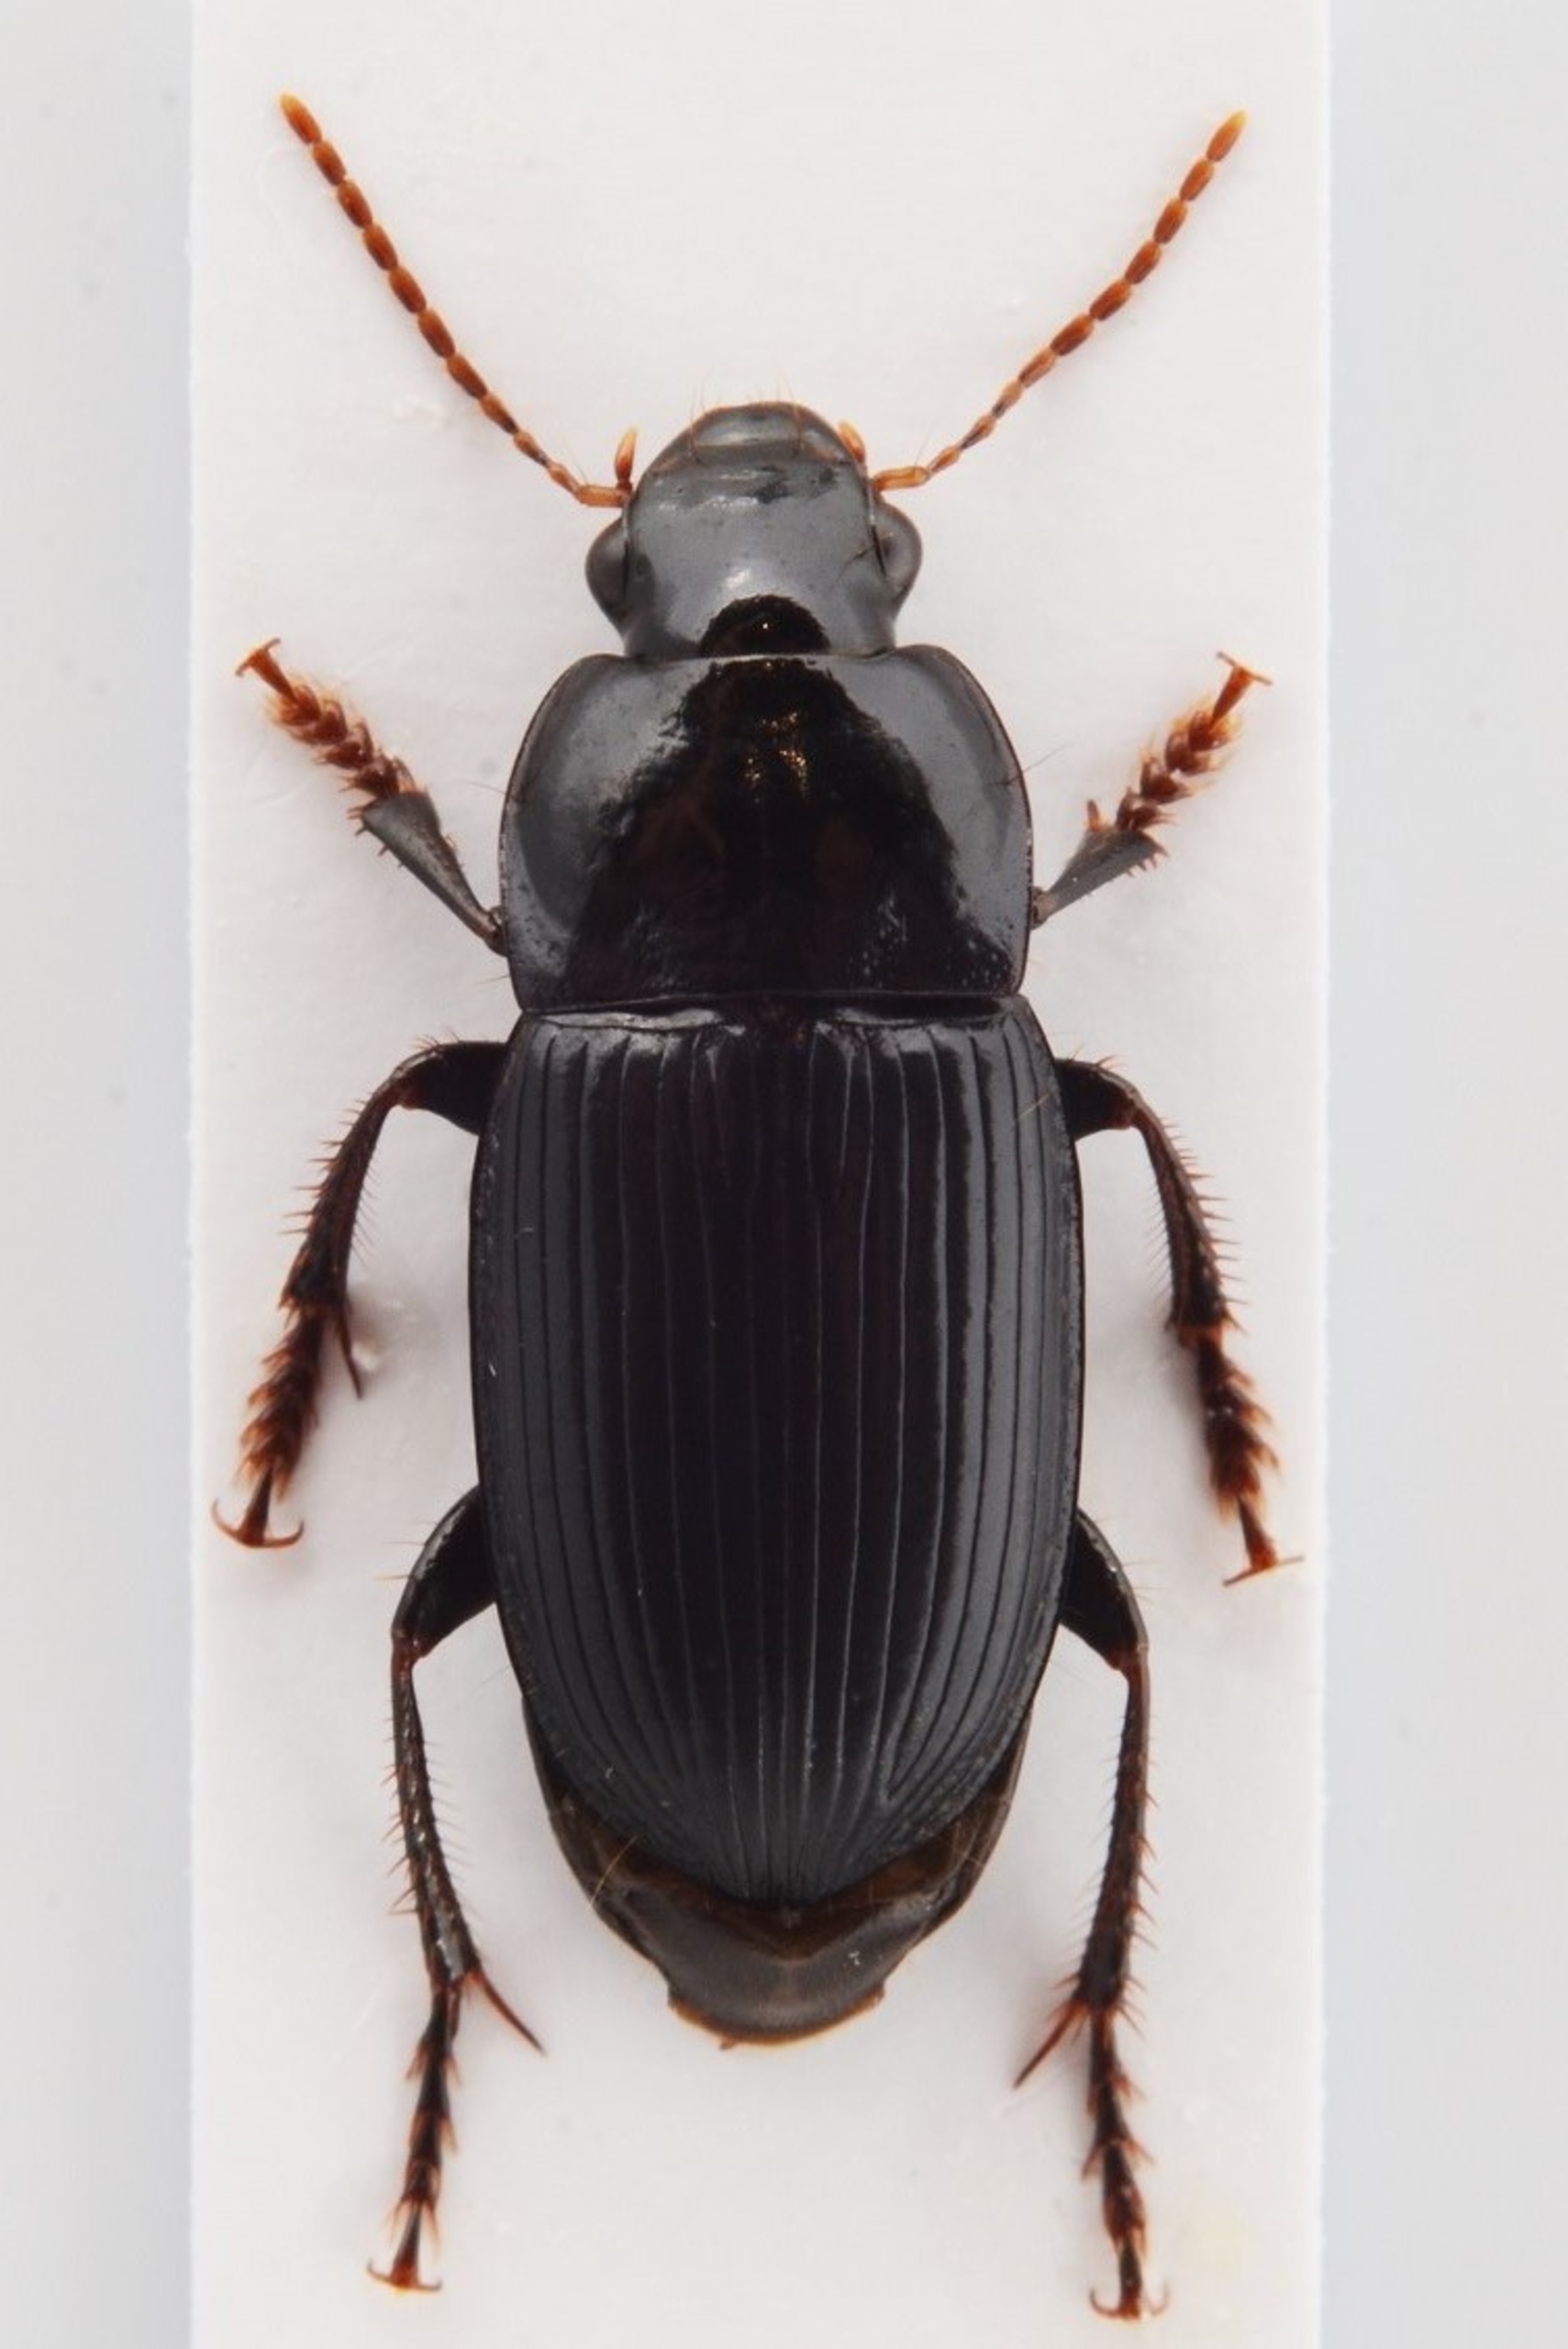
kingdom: Animalia
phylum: Arthropoda
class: Insecta
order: Coleoptera
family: Carabidae
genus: Harpalus
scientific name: Harpalus melancholicus
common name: Klitsandløber
